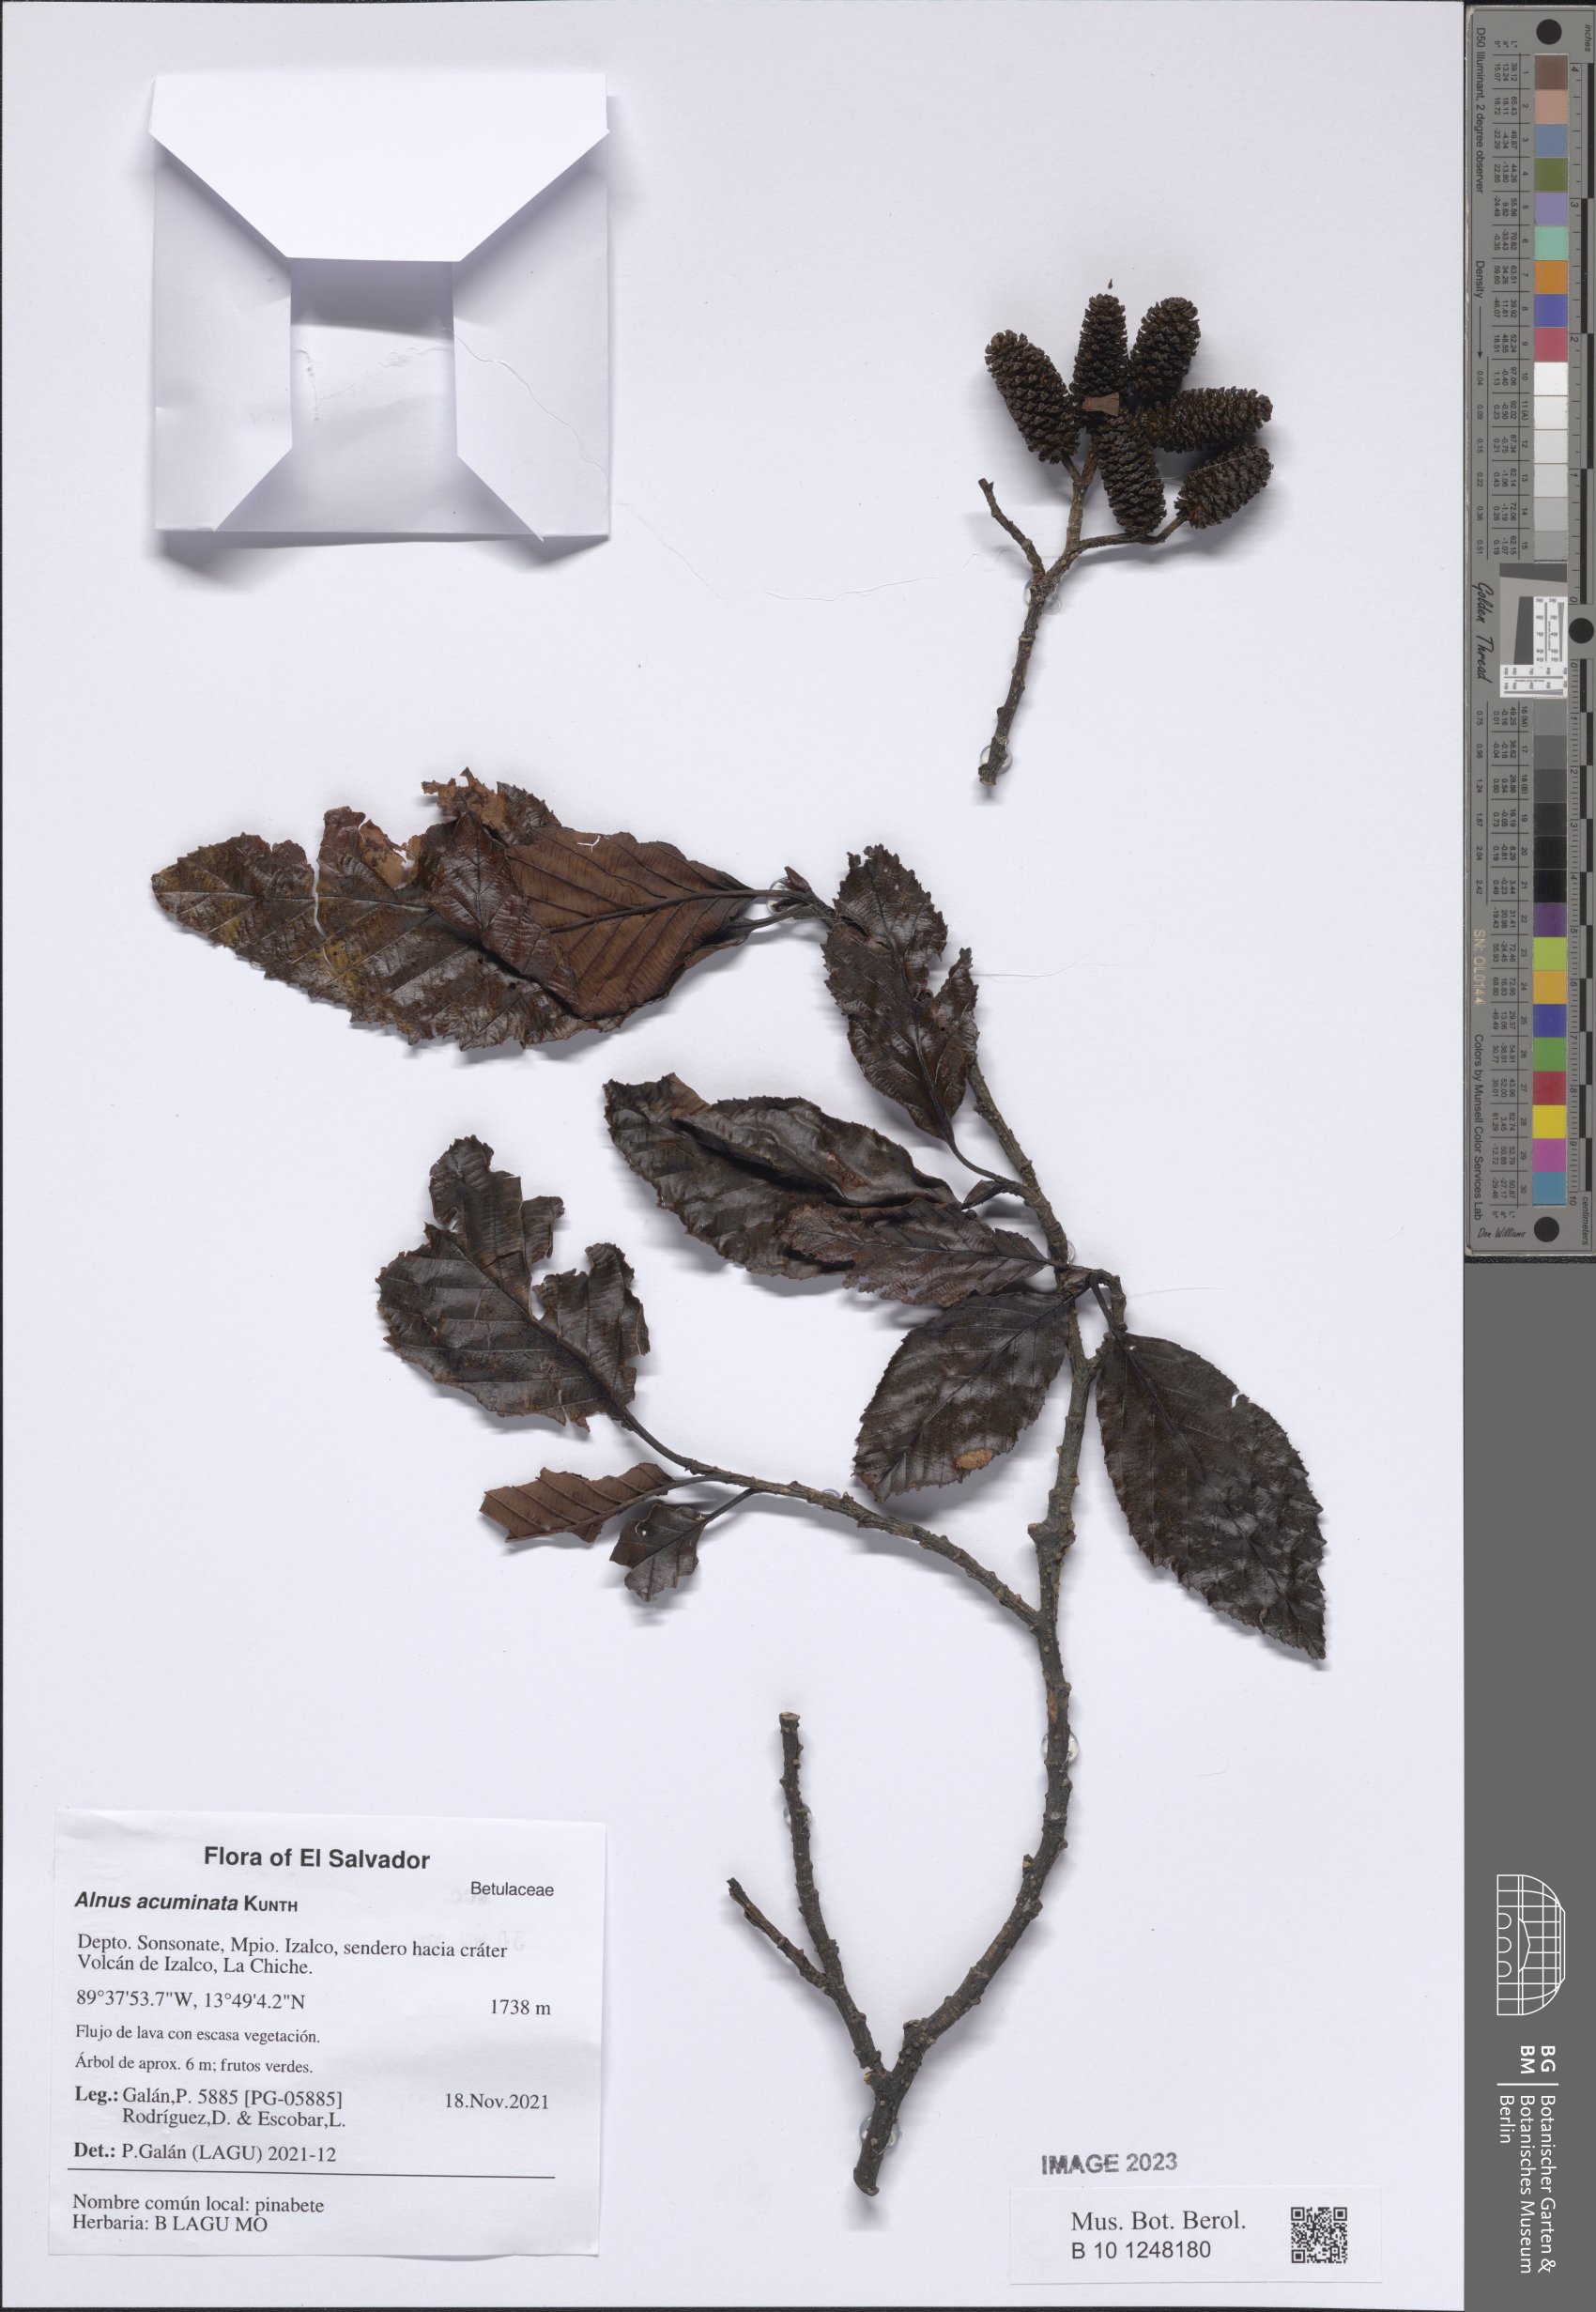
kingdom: Plantae
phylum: Tracheophyta
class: Magnoliopsida
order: Fagales
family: Betulaceae
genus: Alnus
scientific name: Alnus acuminata
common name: Alder
